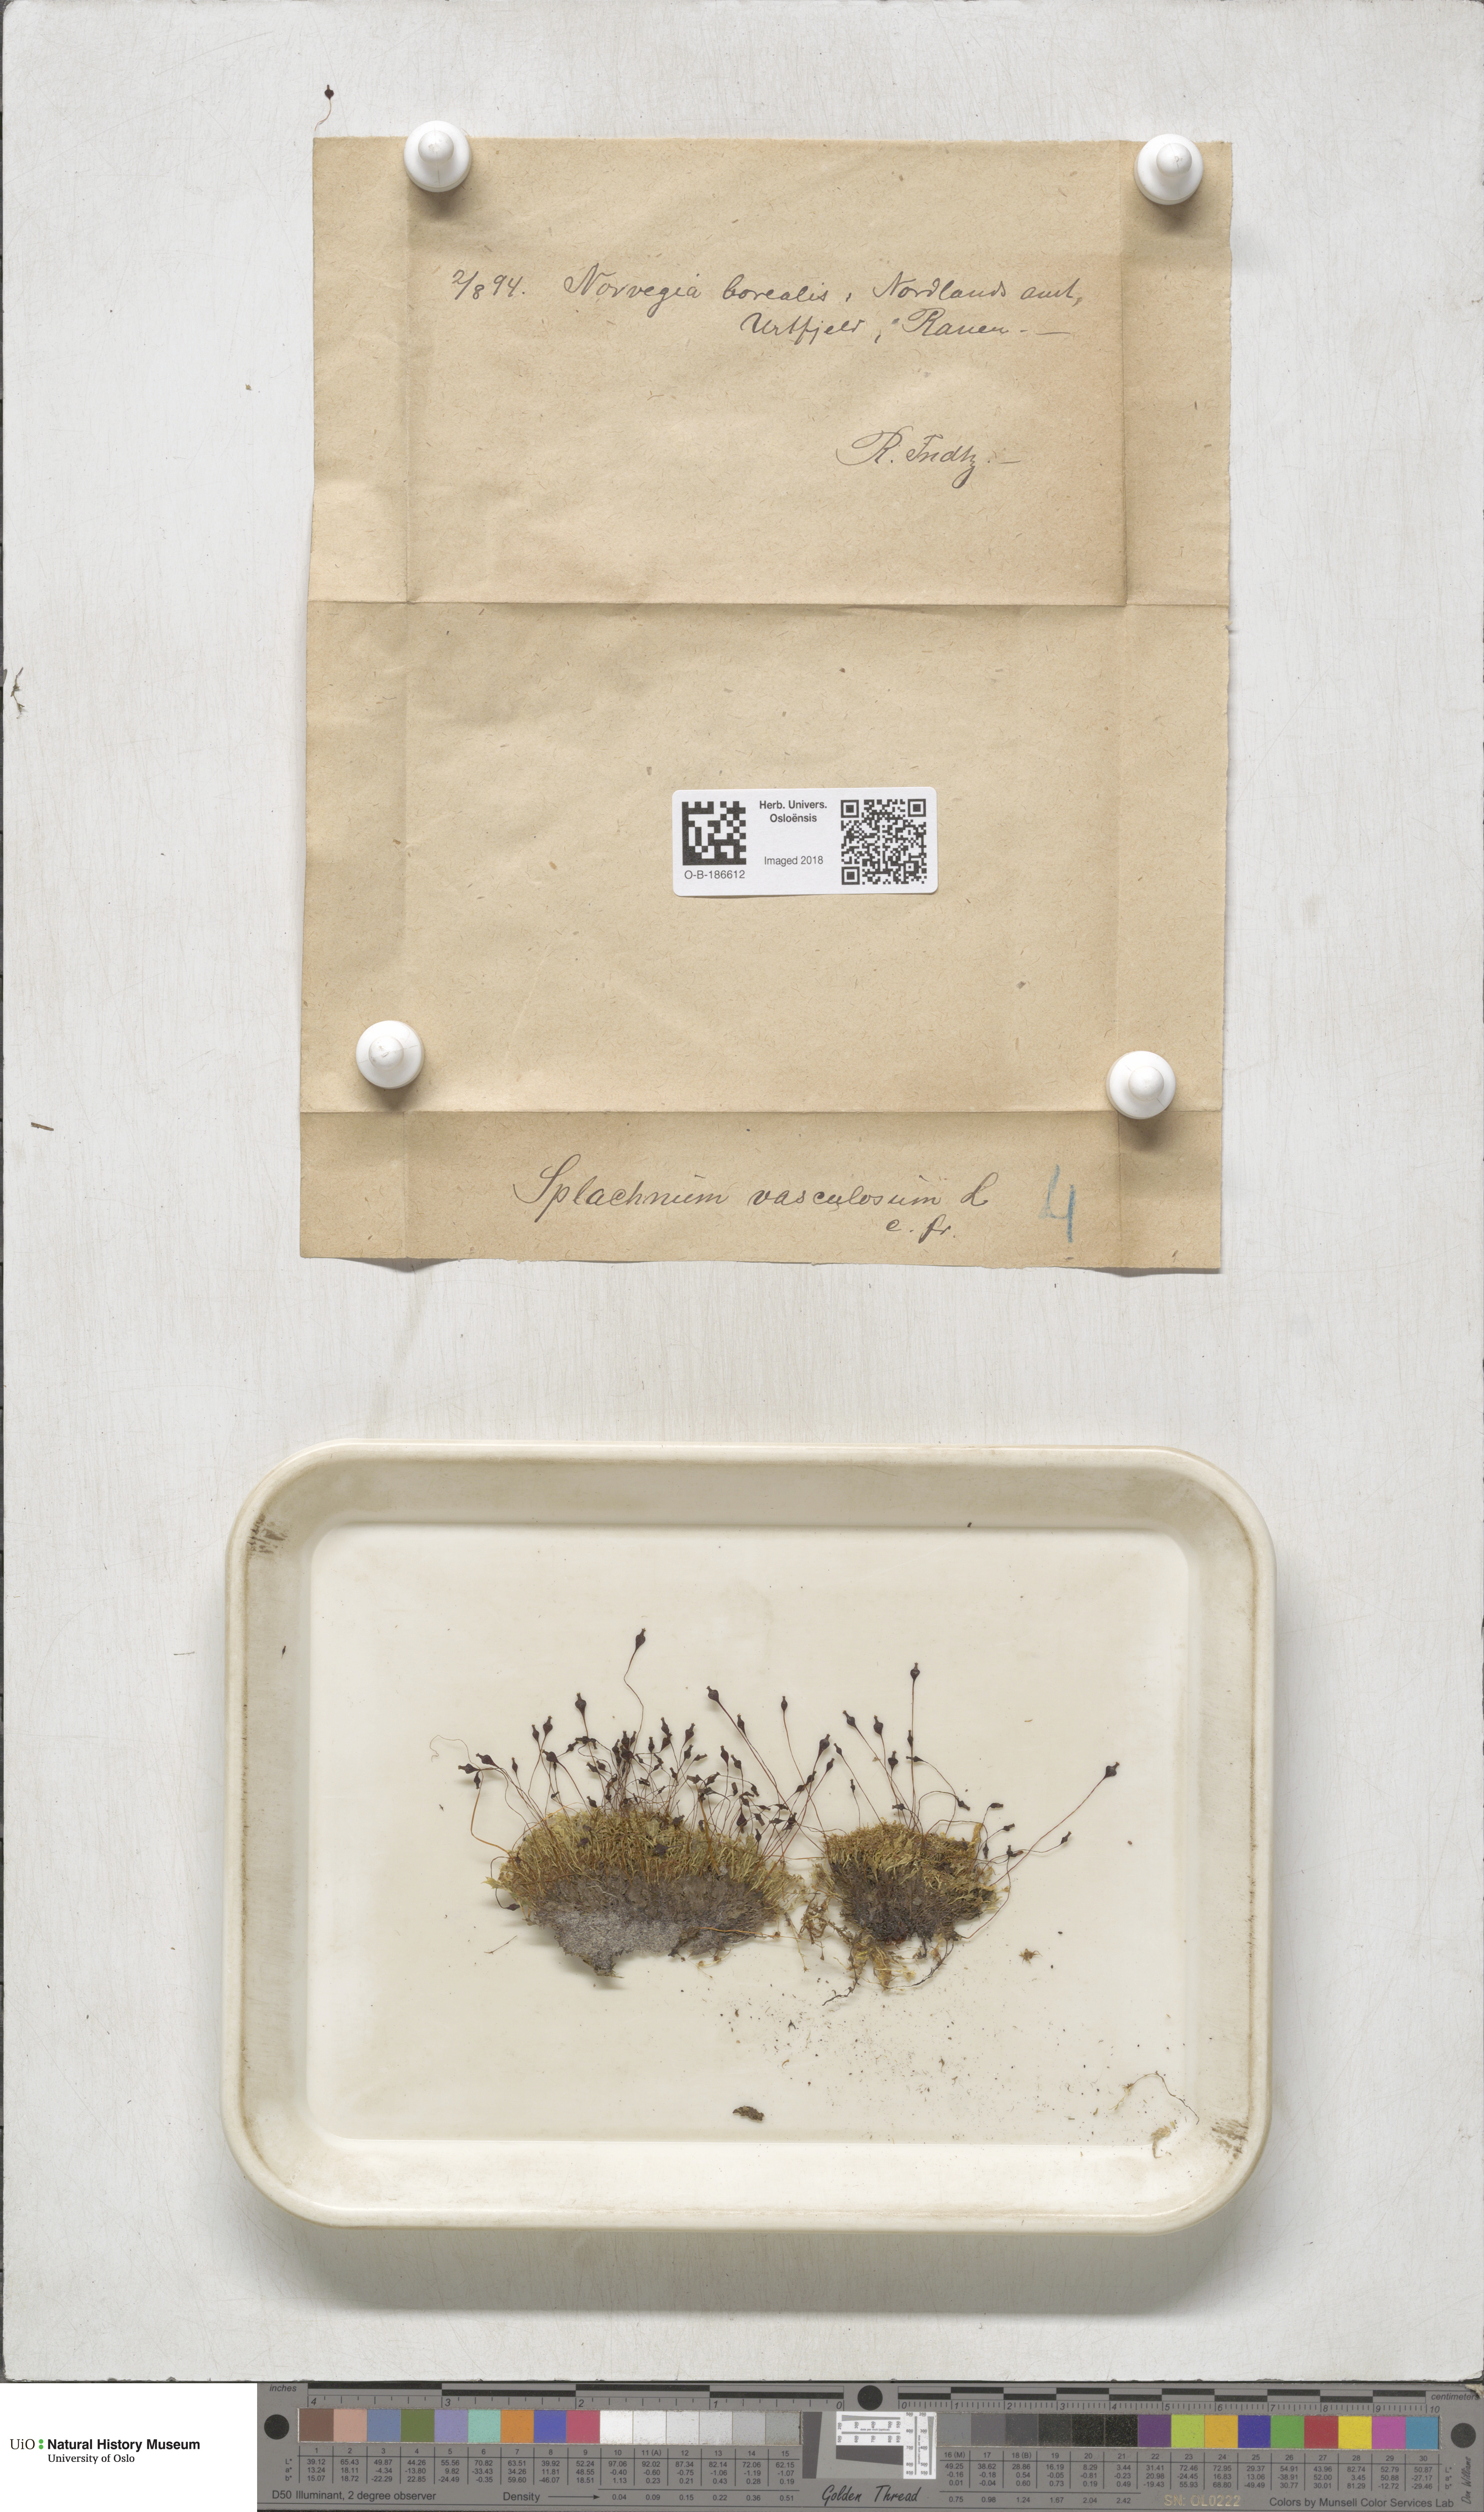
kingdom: Plantae
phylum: Bryophyta
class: Bryopsida
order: Splachnales
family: Splachnaceae
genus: Splachnum
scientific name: Splachnum vasculosum
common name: Rugged dung moss
